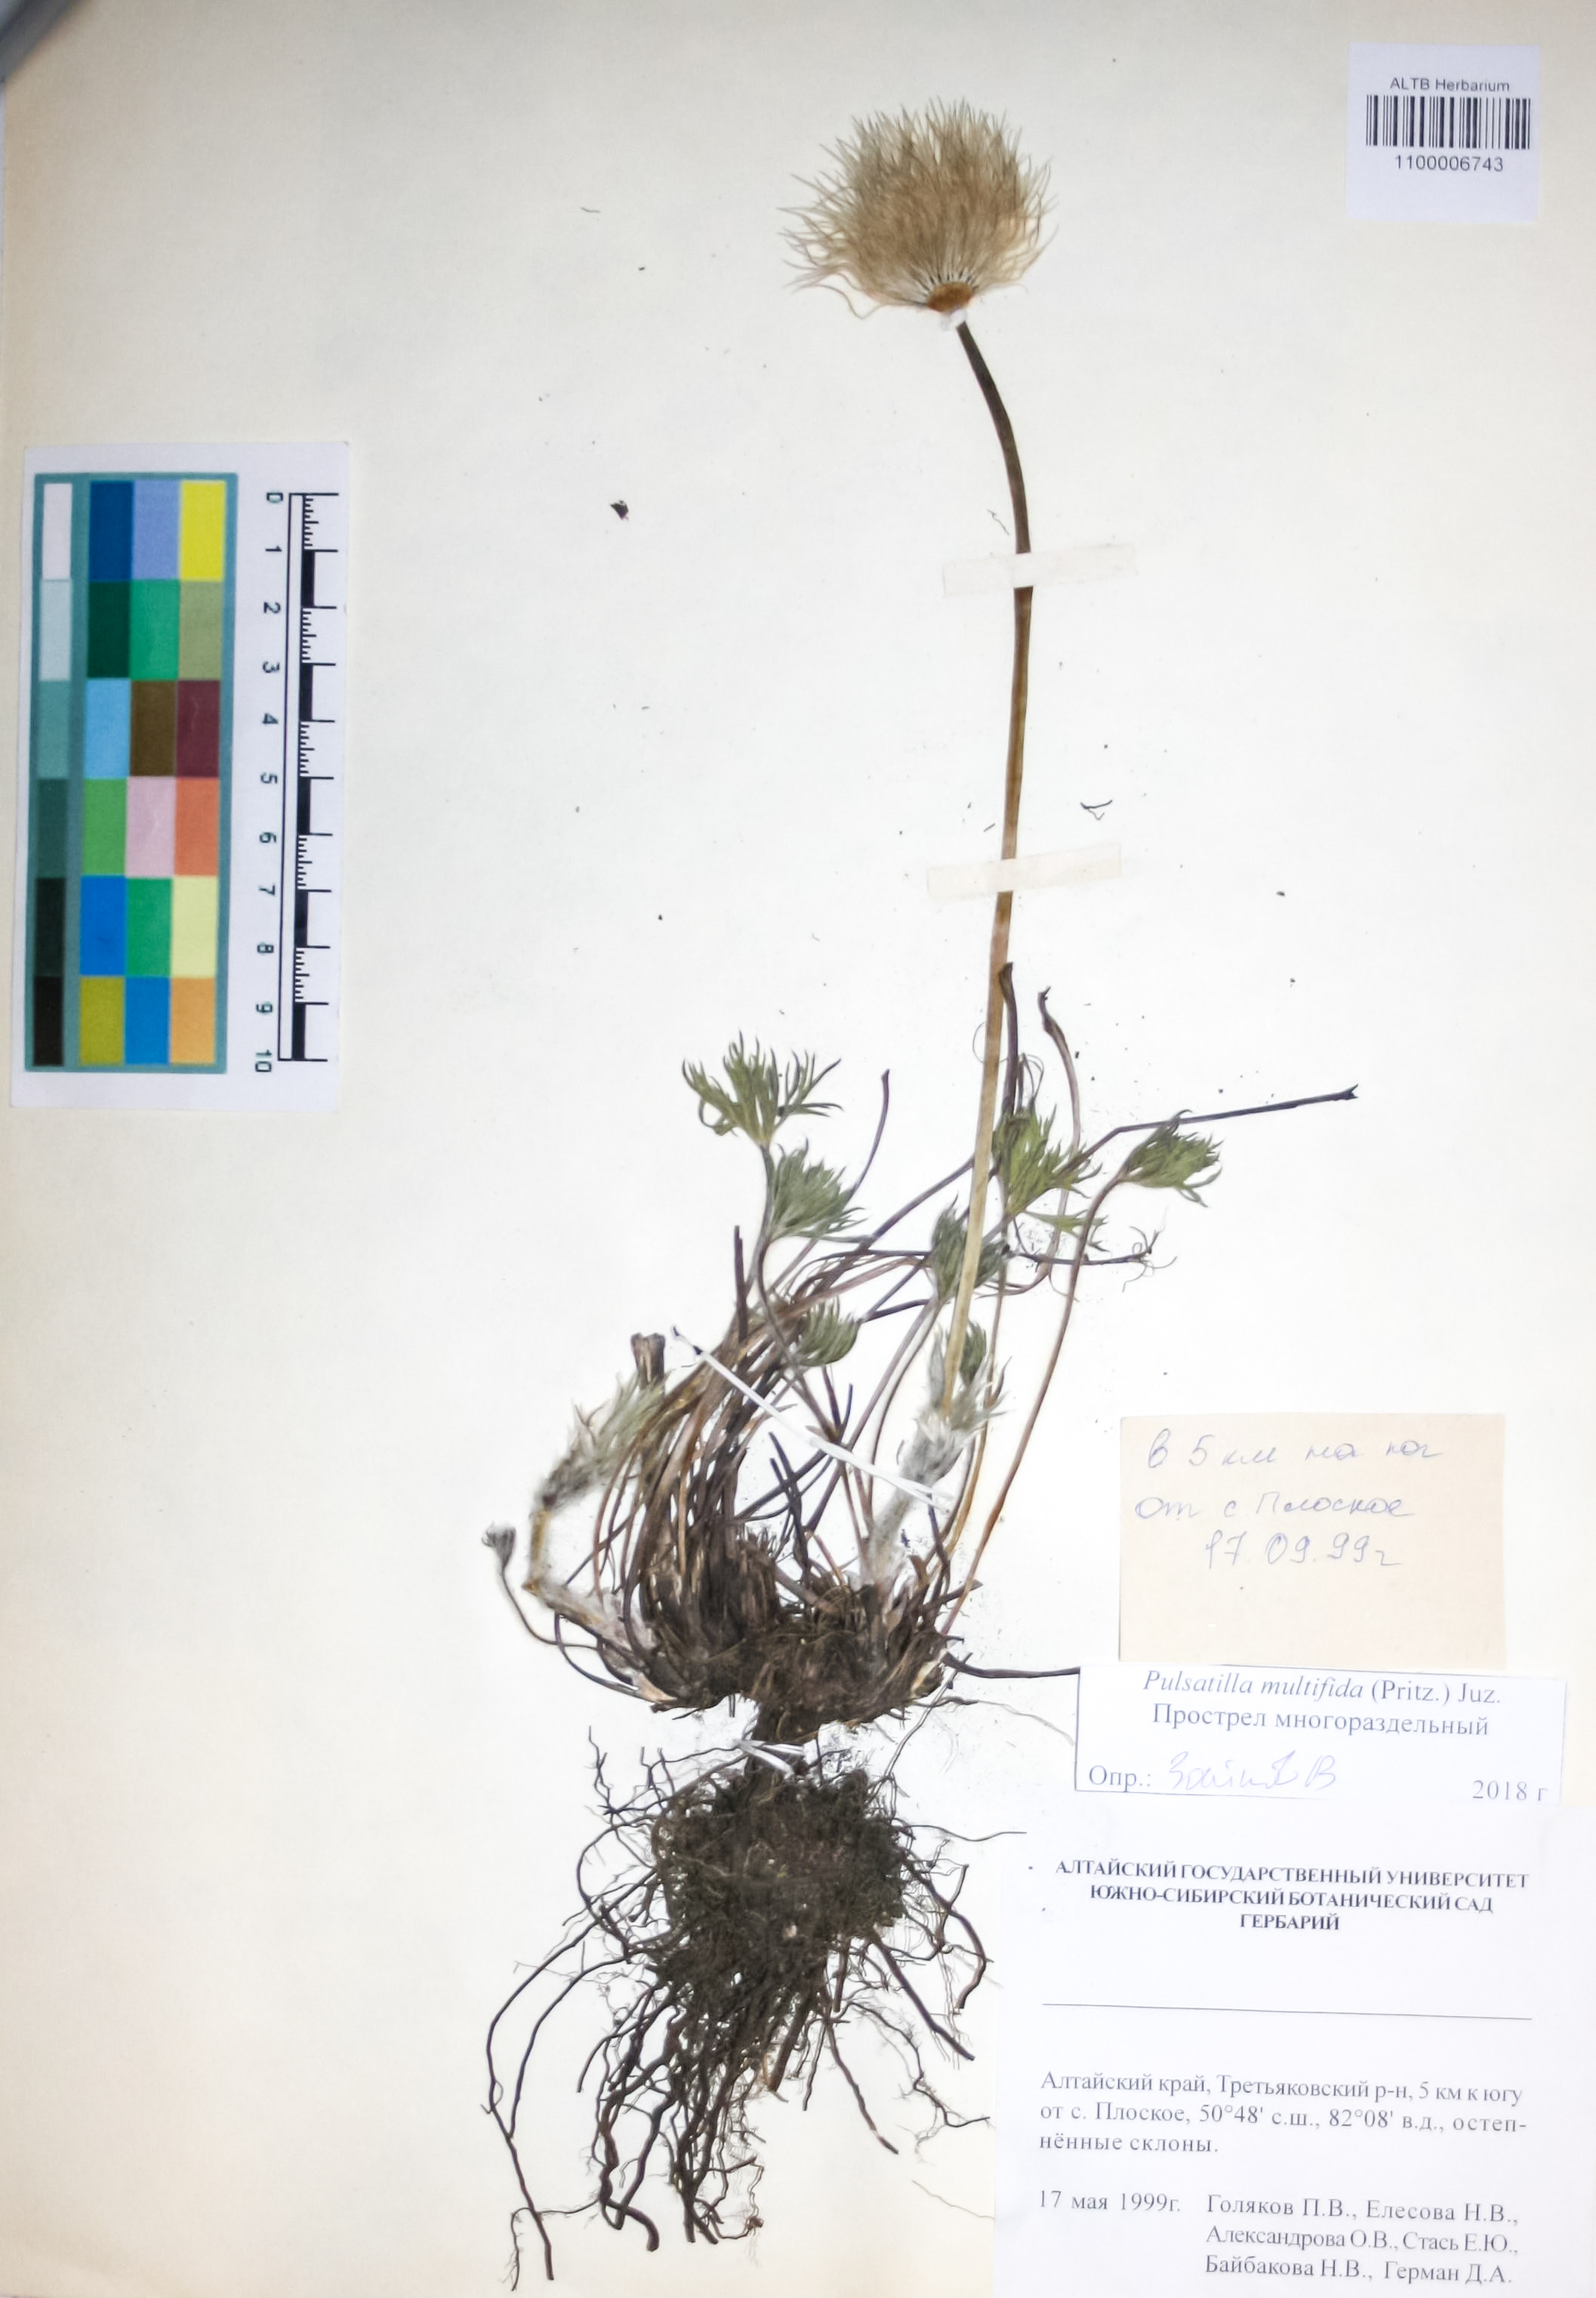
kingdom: Plantae
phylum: Tracheophyta
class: Magnoliopsida
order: Ranunculales
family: Ranunculaceae
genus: Pulsatilla
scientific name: Pulsatilla patens
